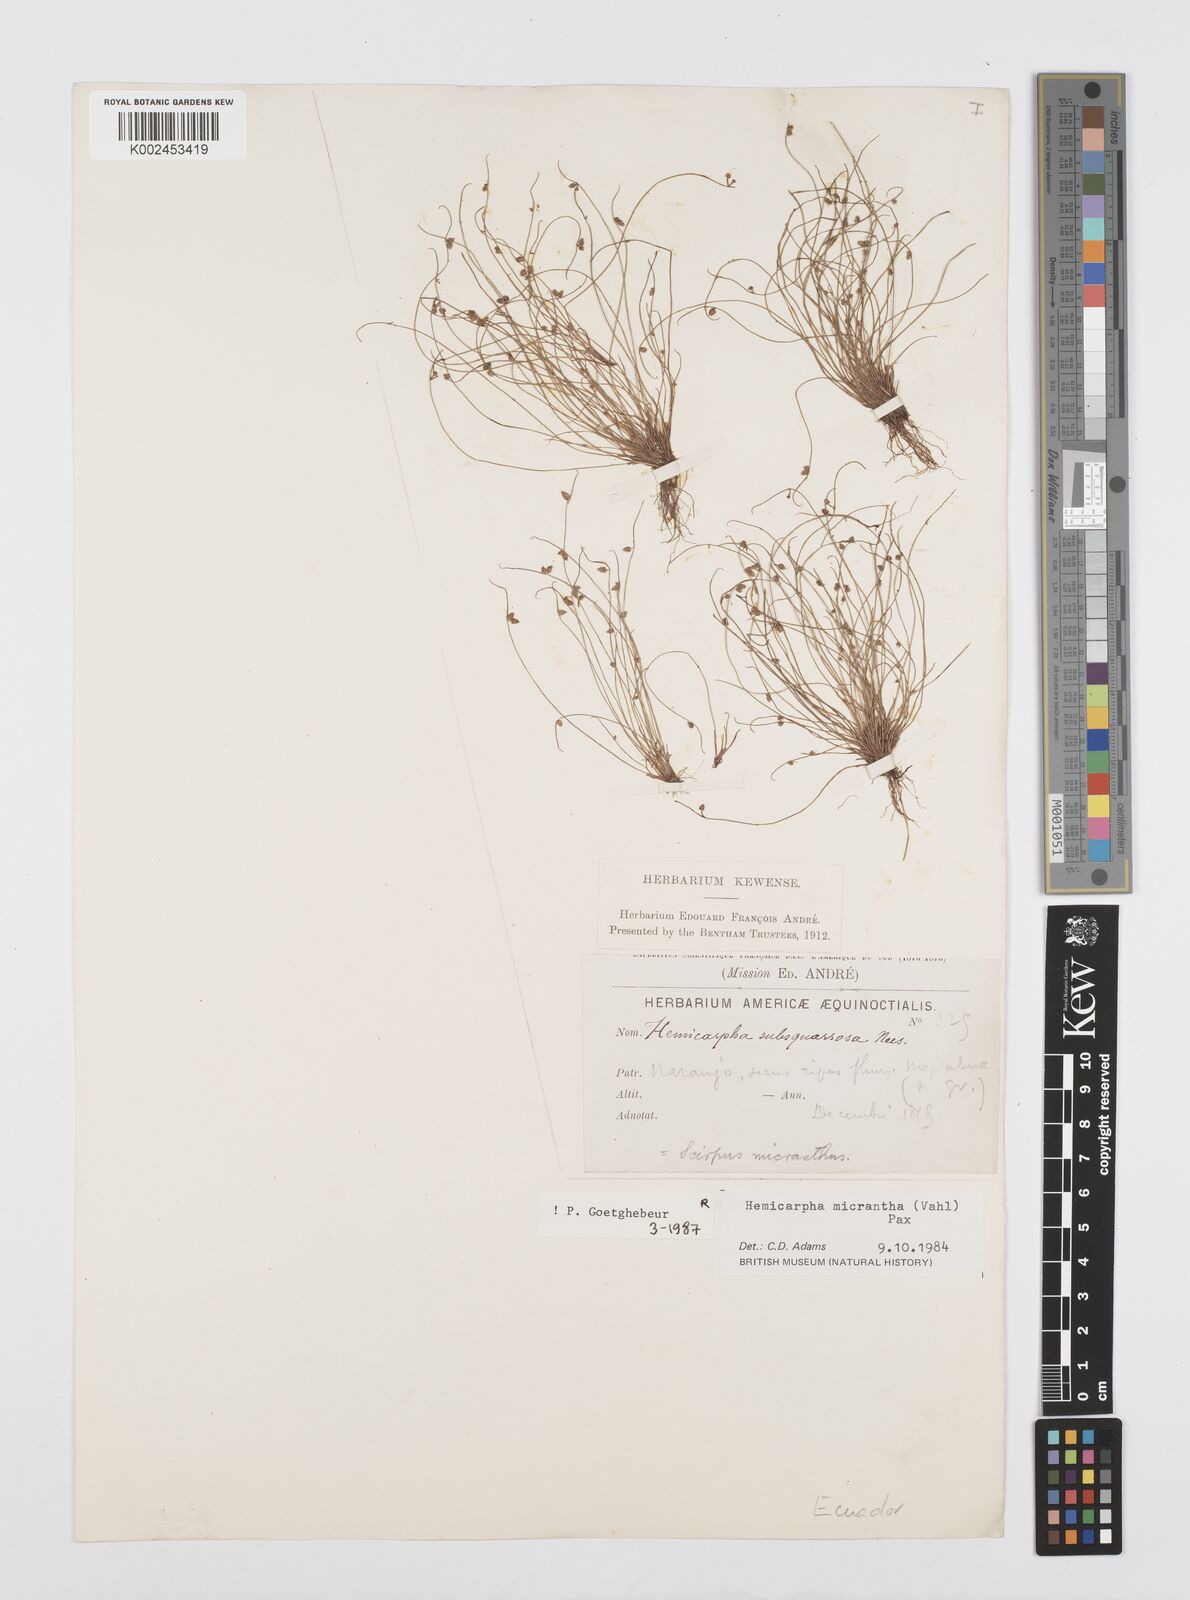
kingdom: Plantae
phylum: Tracheophyta
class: Liliopsida
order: Poales
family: Cyperaceae
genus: Cyperus
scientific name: Cyperus dentatus
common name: Dentate umbrella sedge
